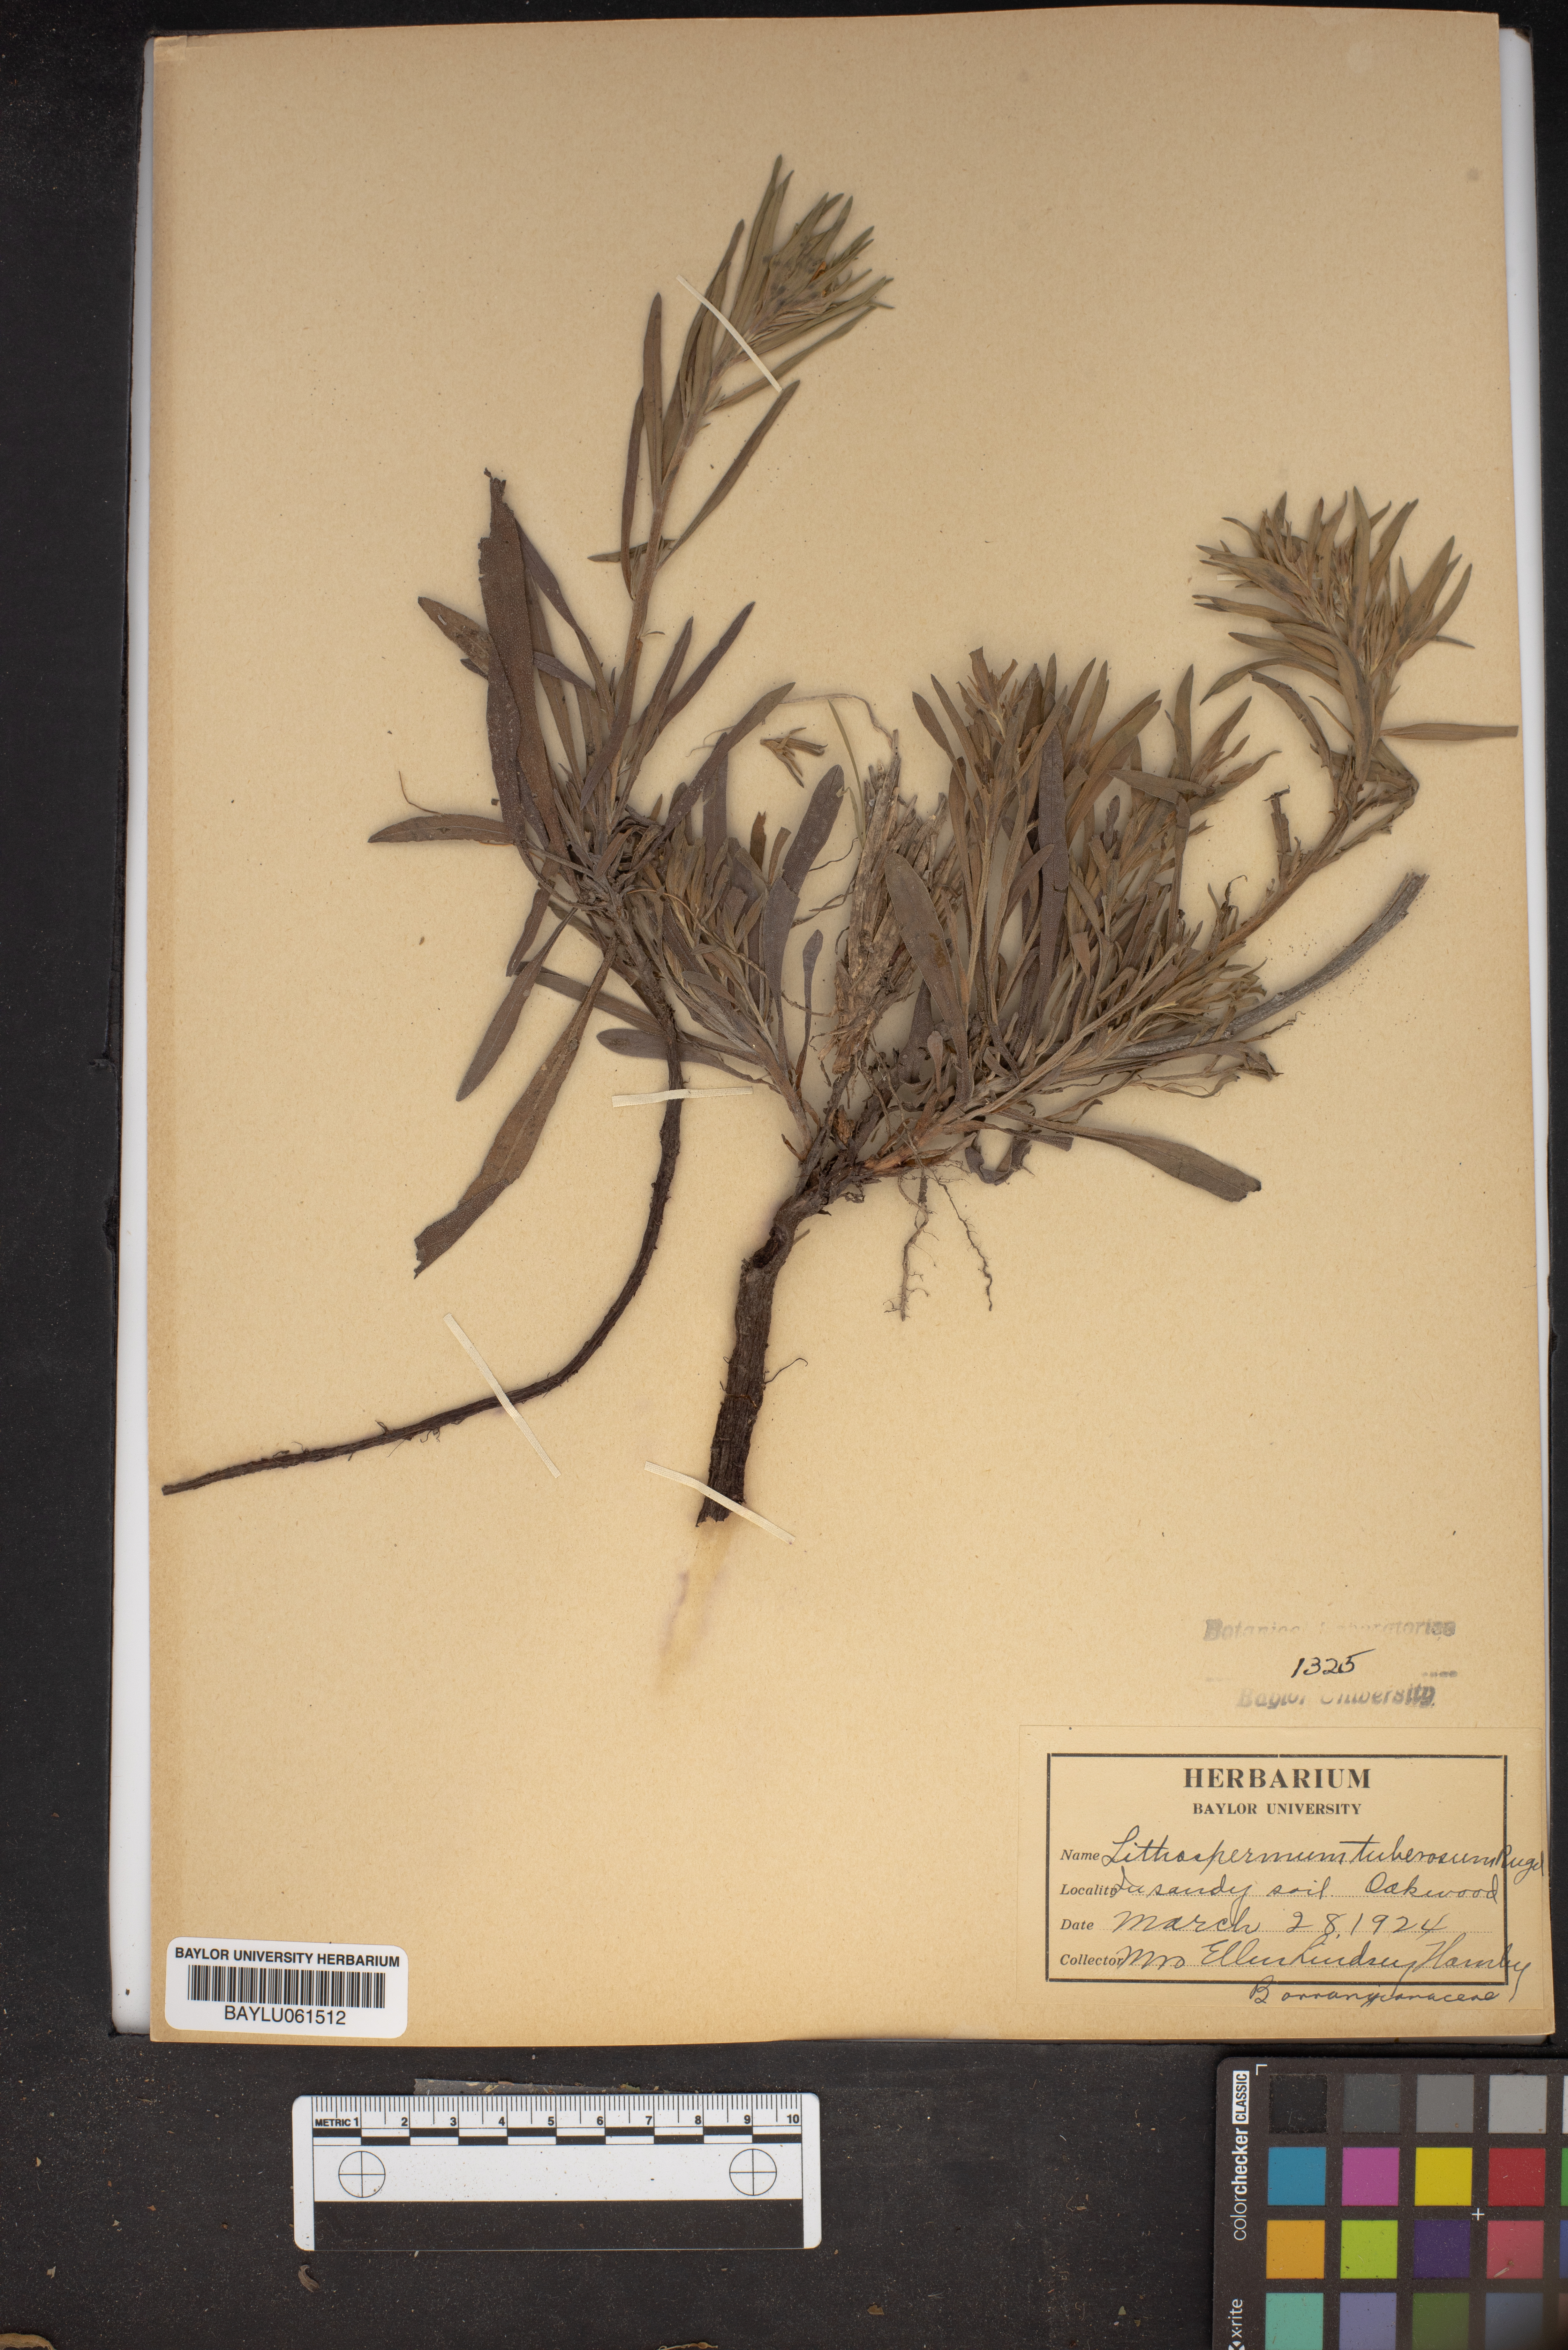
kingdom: Plantae
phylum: Tracheophyta
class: Magnoliopsida
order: Boraginales
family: Boraginaceae
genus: Lithospermum
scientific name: Lithospermum tuberosum
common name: Southern stoneseed
